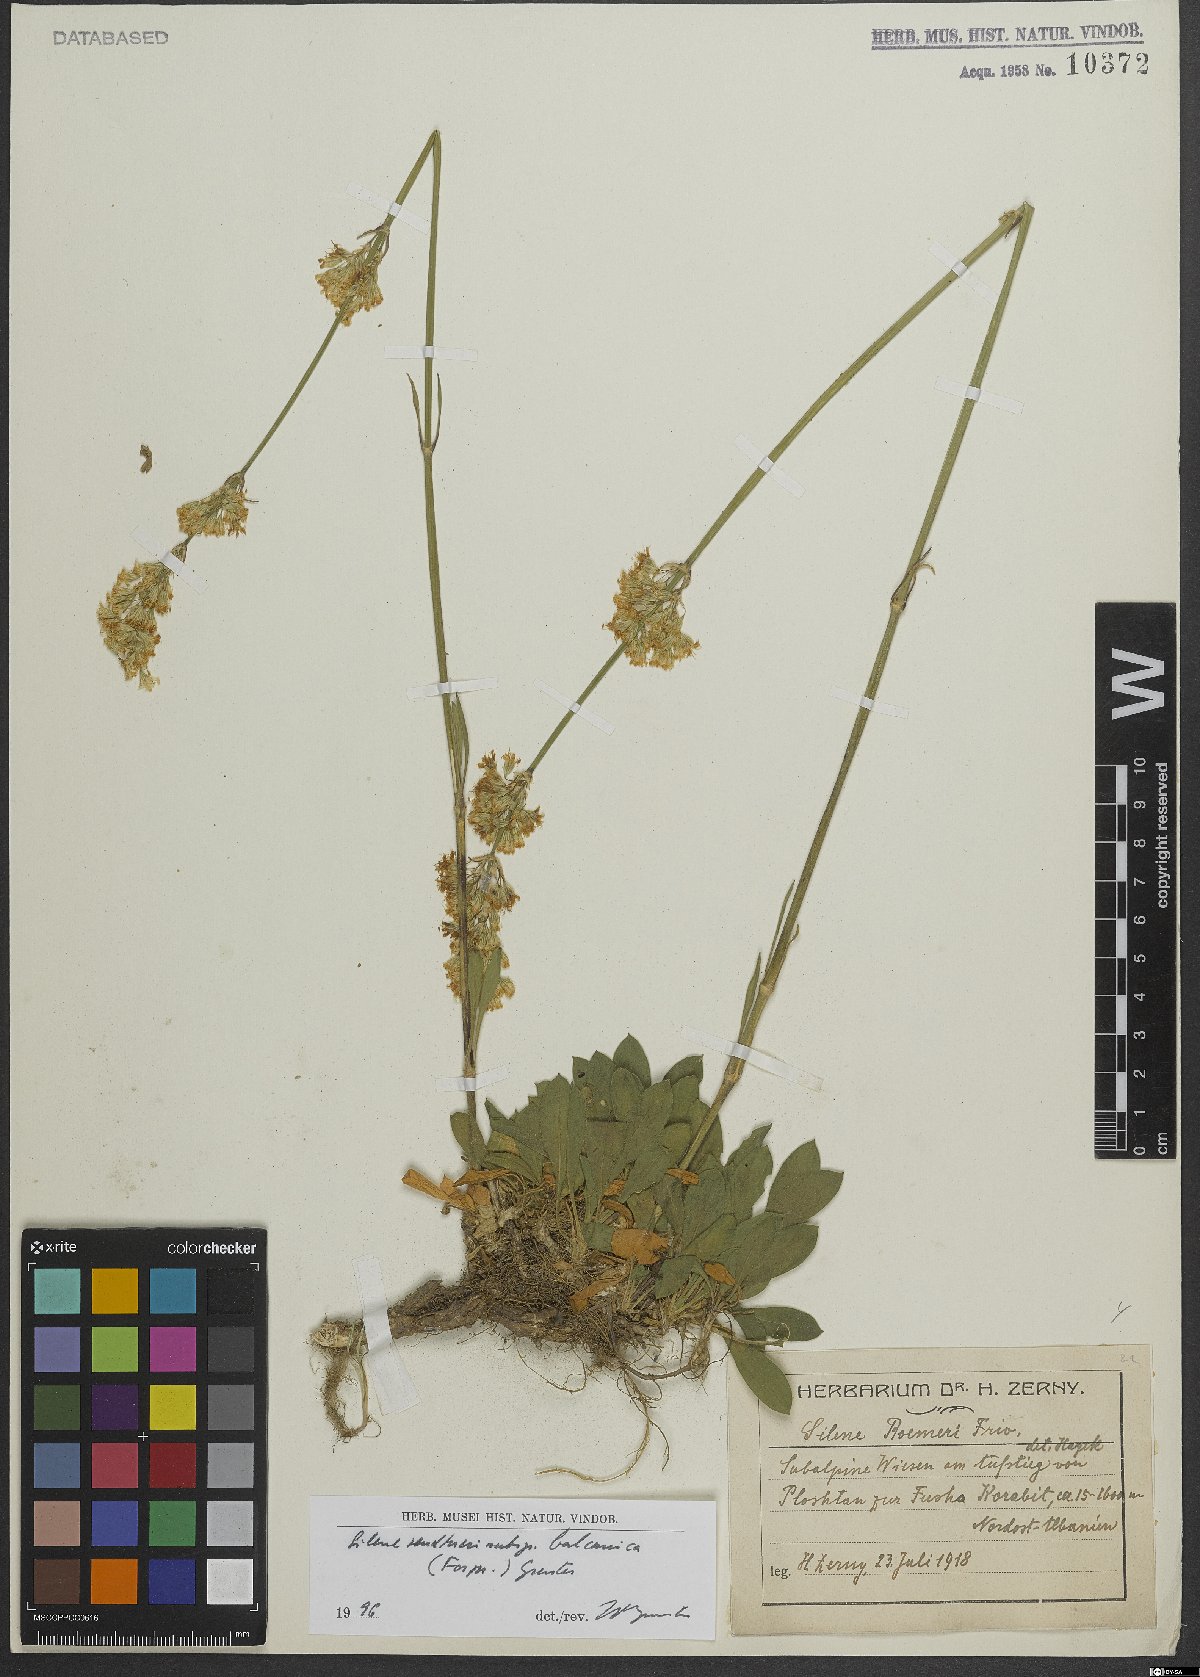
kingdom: Plantae
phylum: Tracheophyta
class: Magnoliopsida
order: Caryophyllales
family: Caryophyllaceae
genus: Silene
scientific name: Silene sendtneri
